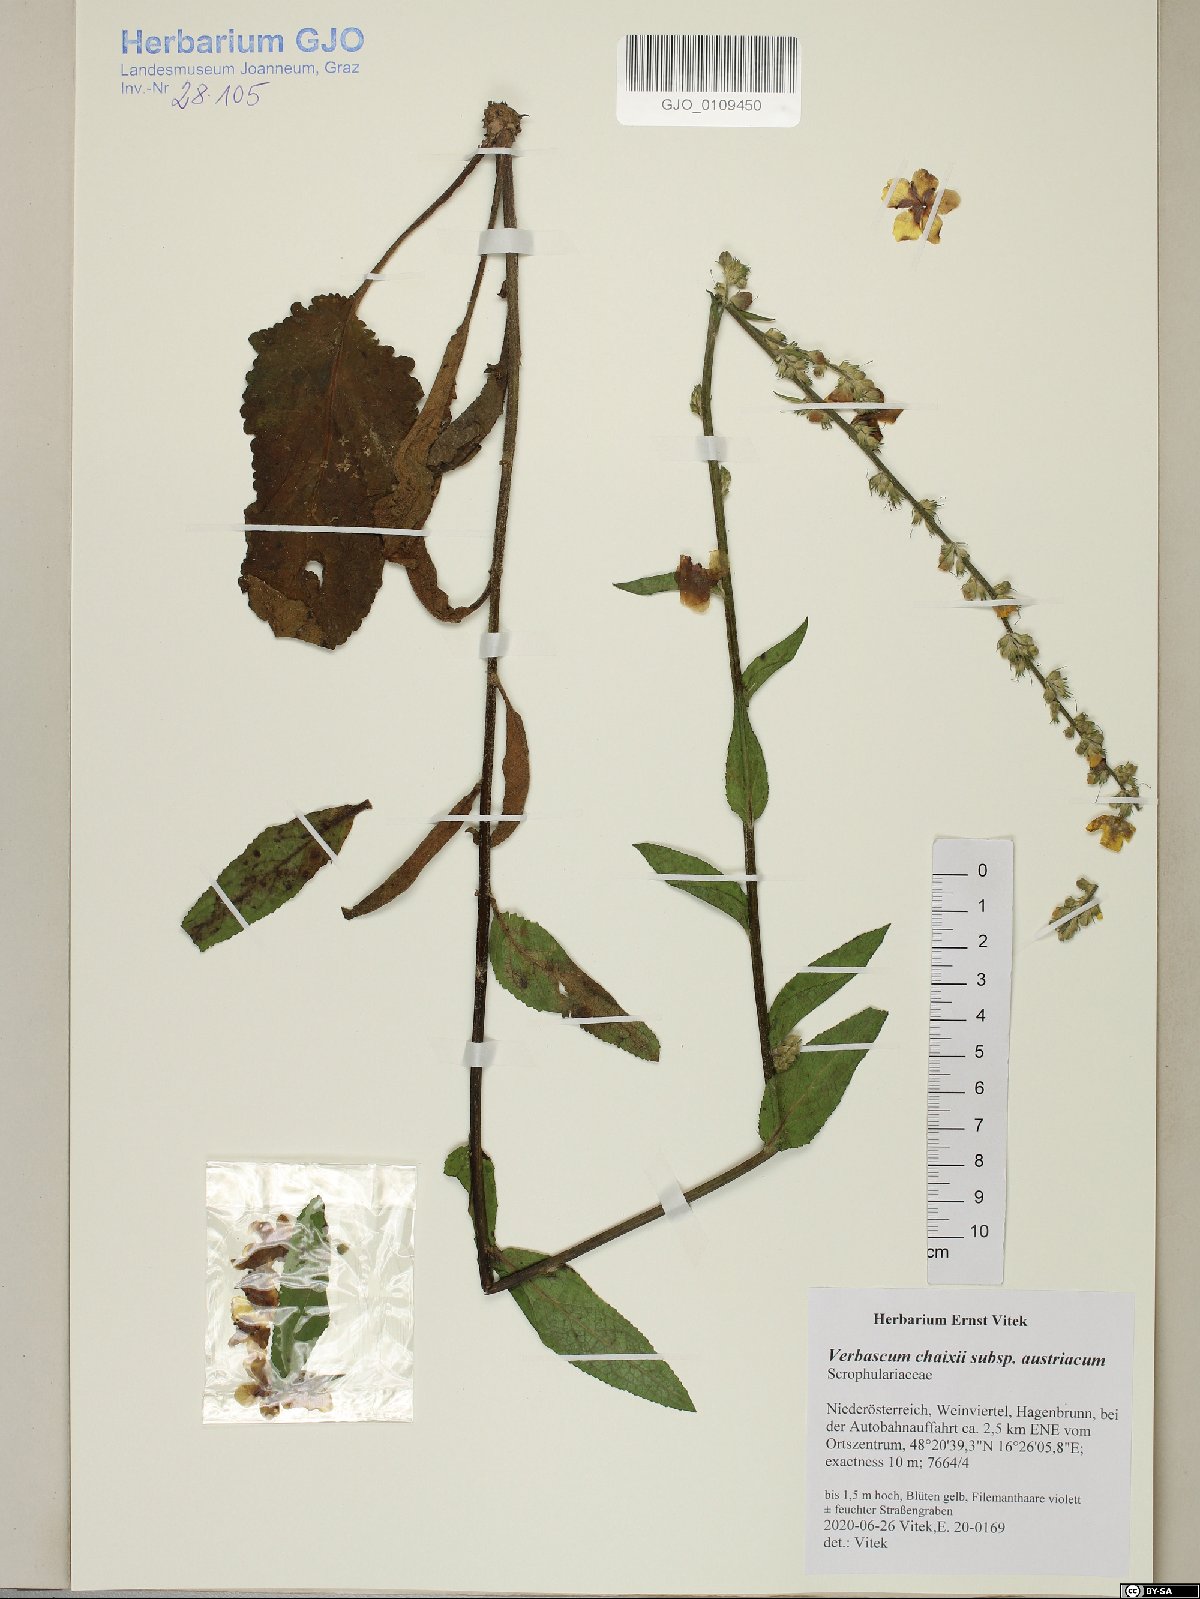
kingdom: Plantae
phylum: Tracheophyta
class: Magnoliopsida
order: Lamiales
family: Scrophulariaceae
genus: Verbascum
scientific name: Verbascum chaixii
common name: Nettle-leaved mullein
